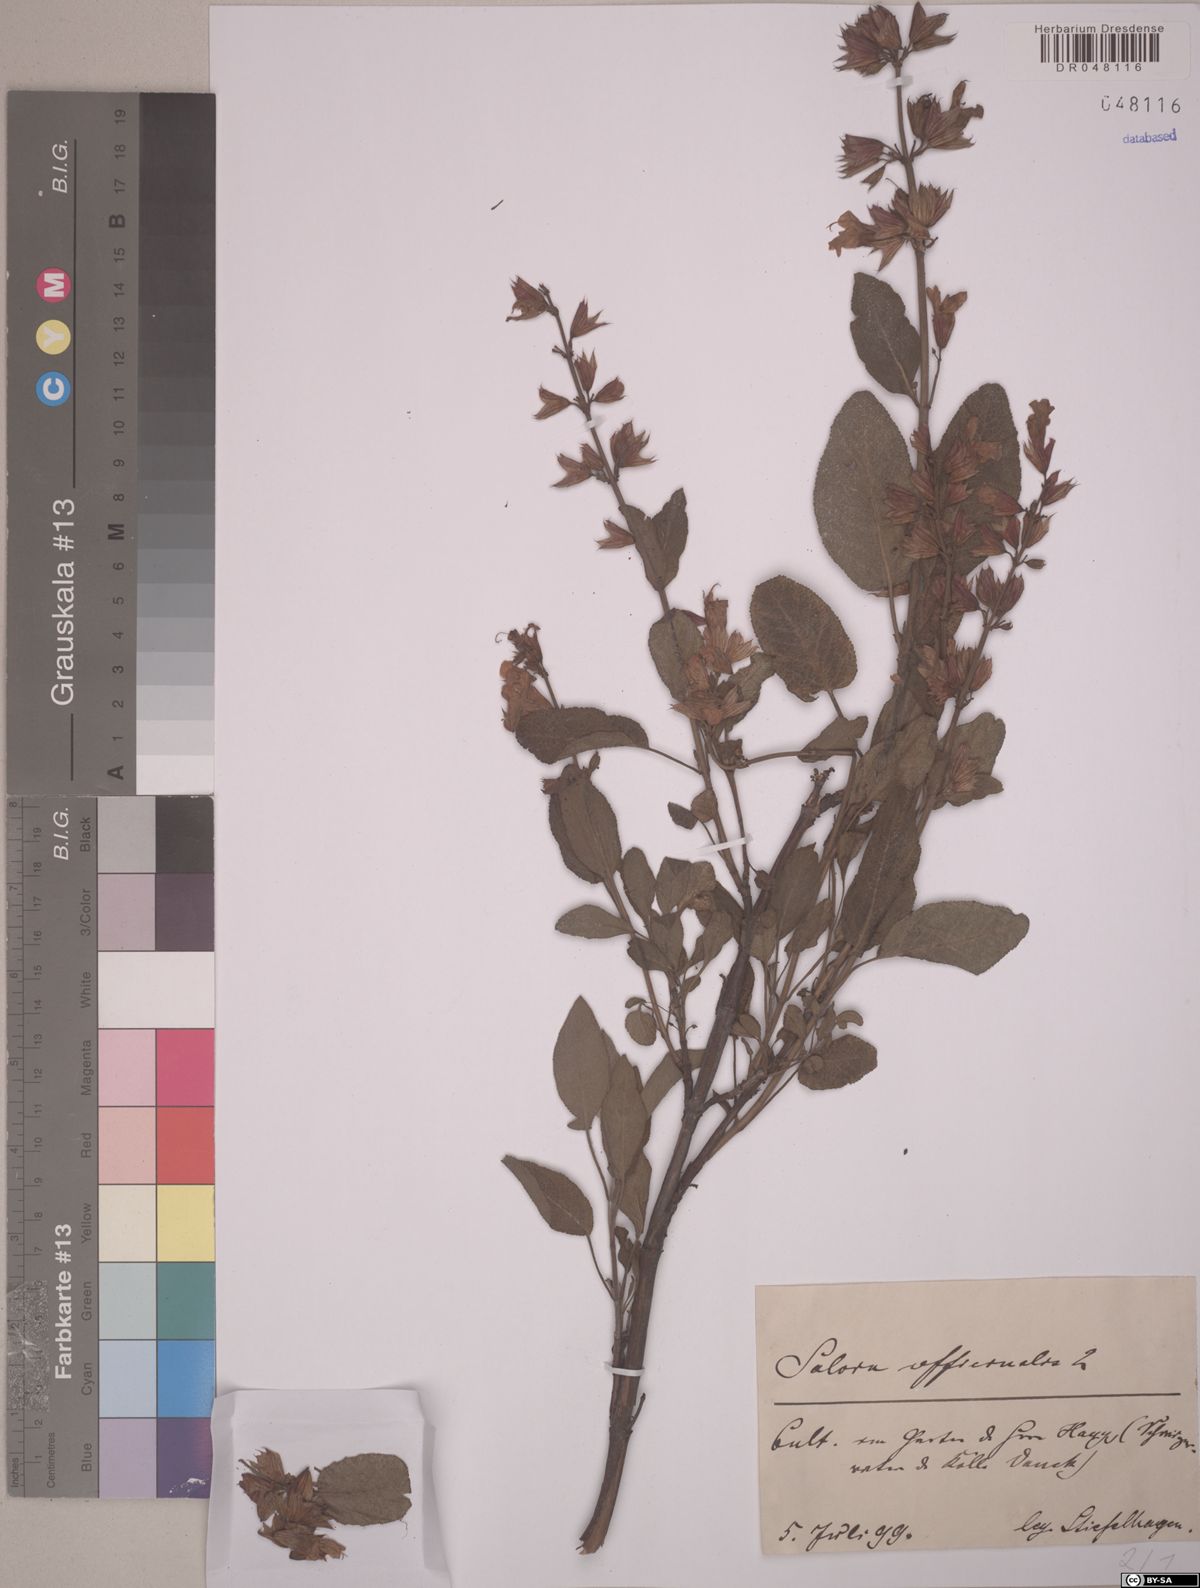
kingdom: Plantae
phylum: Tracheophyta
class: Magnoliopsida
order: Lamiales
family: Lamiaceae
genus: Salvia
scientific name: Salvia officinalis
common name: Sage
